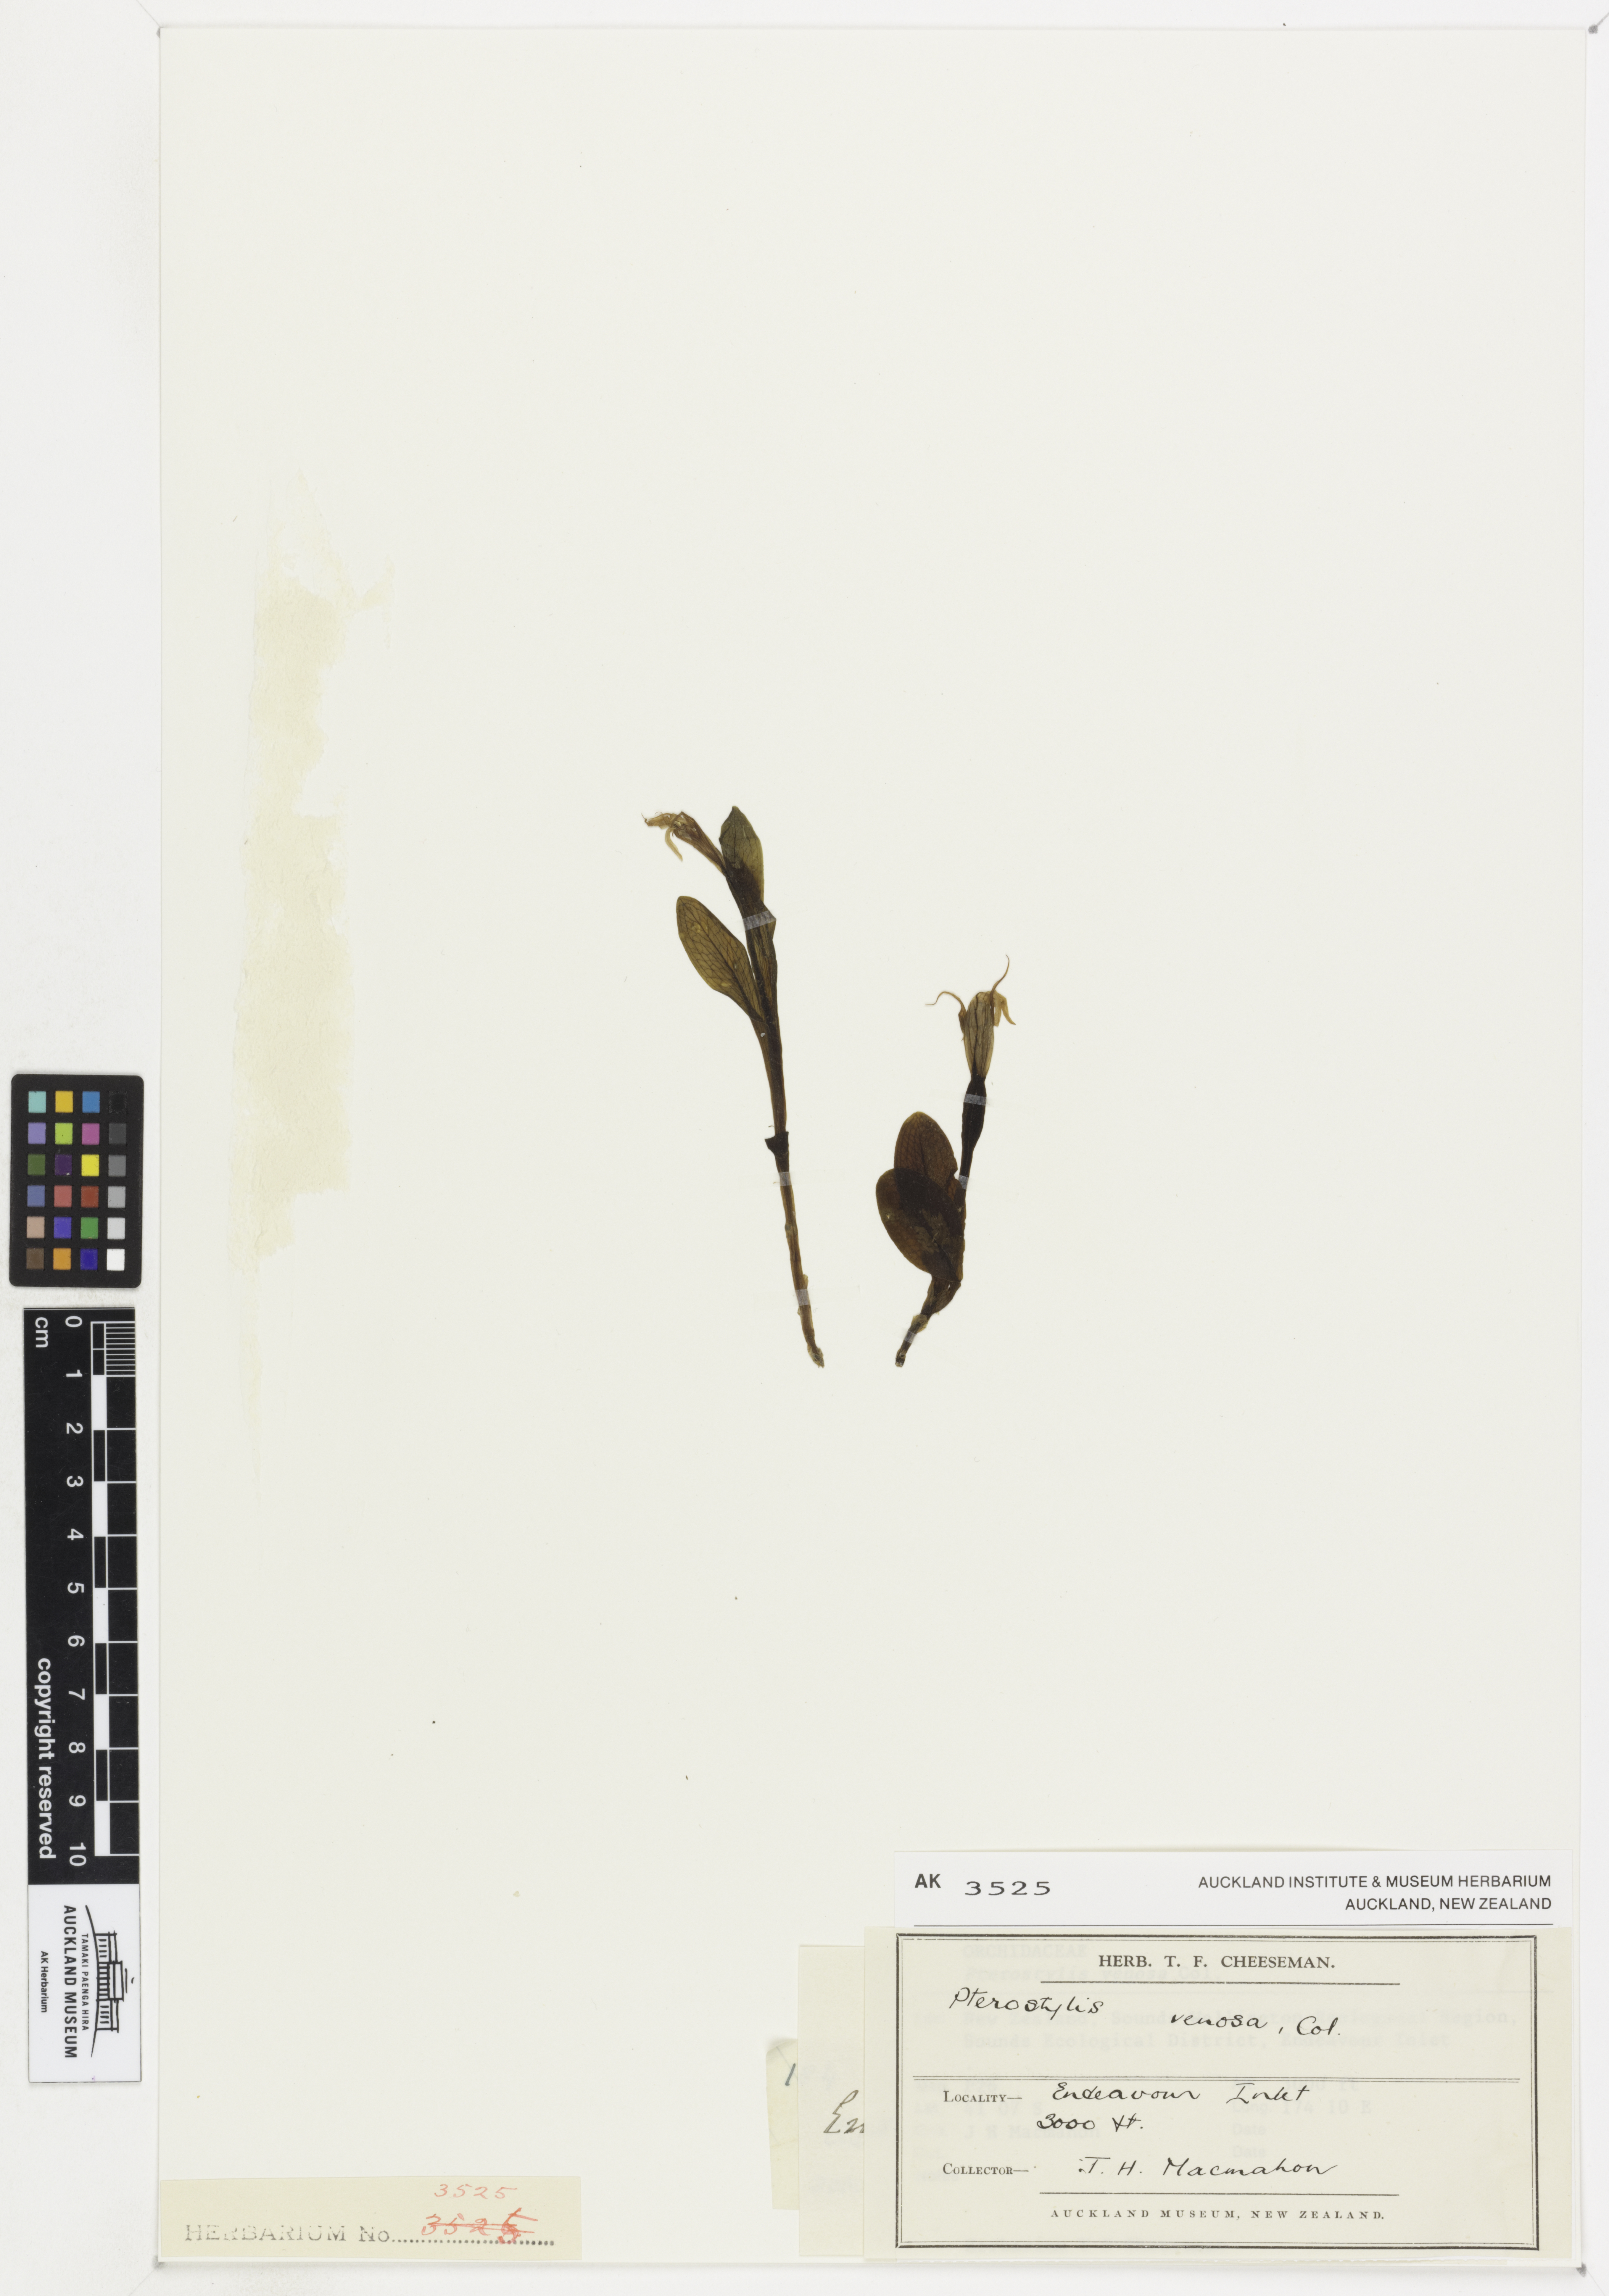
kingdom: Plantae
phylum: Tracheophyta
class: Liliopsida
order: Asparagales
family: Orchidaceae
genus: Pterostylis
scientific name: Pterostylis venosa
